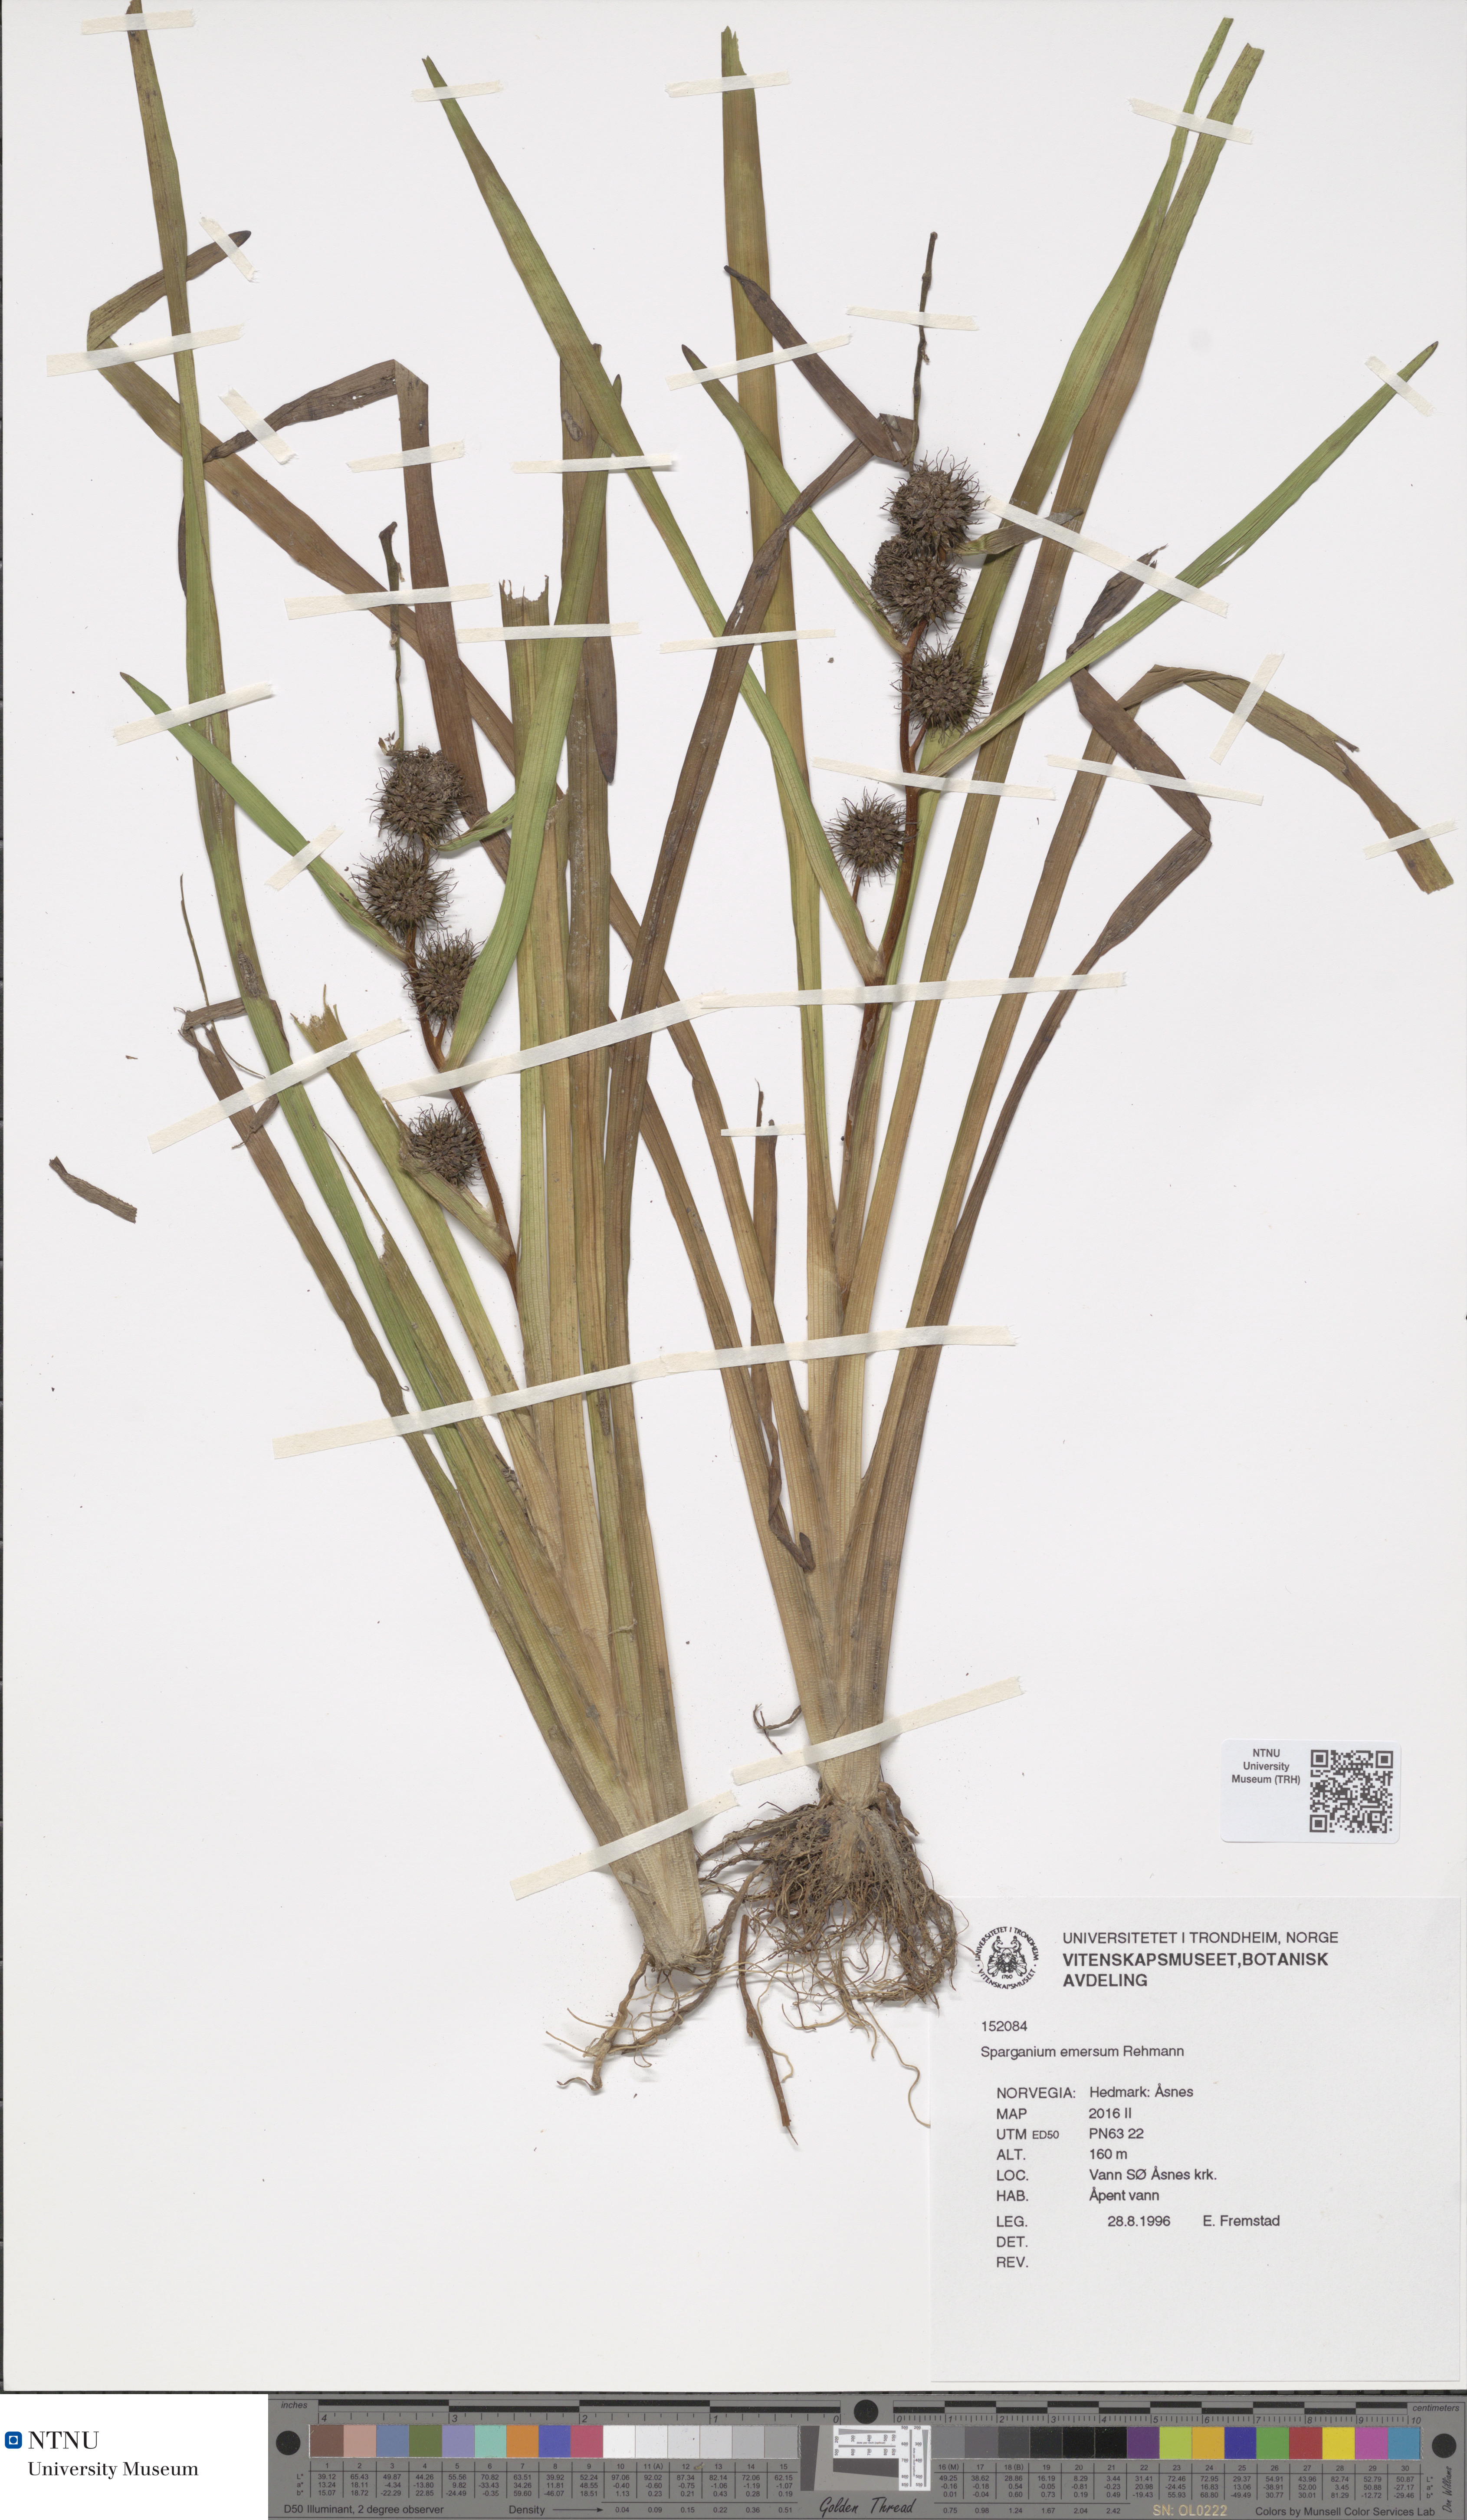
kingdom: Plantae
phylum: Tracheophyta
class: Liliopsida
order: Poales
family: Typhaceae
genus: Sparganium
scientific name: Sparganium emersum
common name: Unbranched bur-reed
